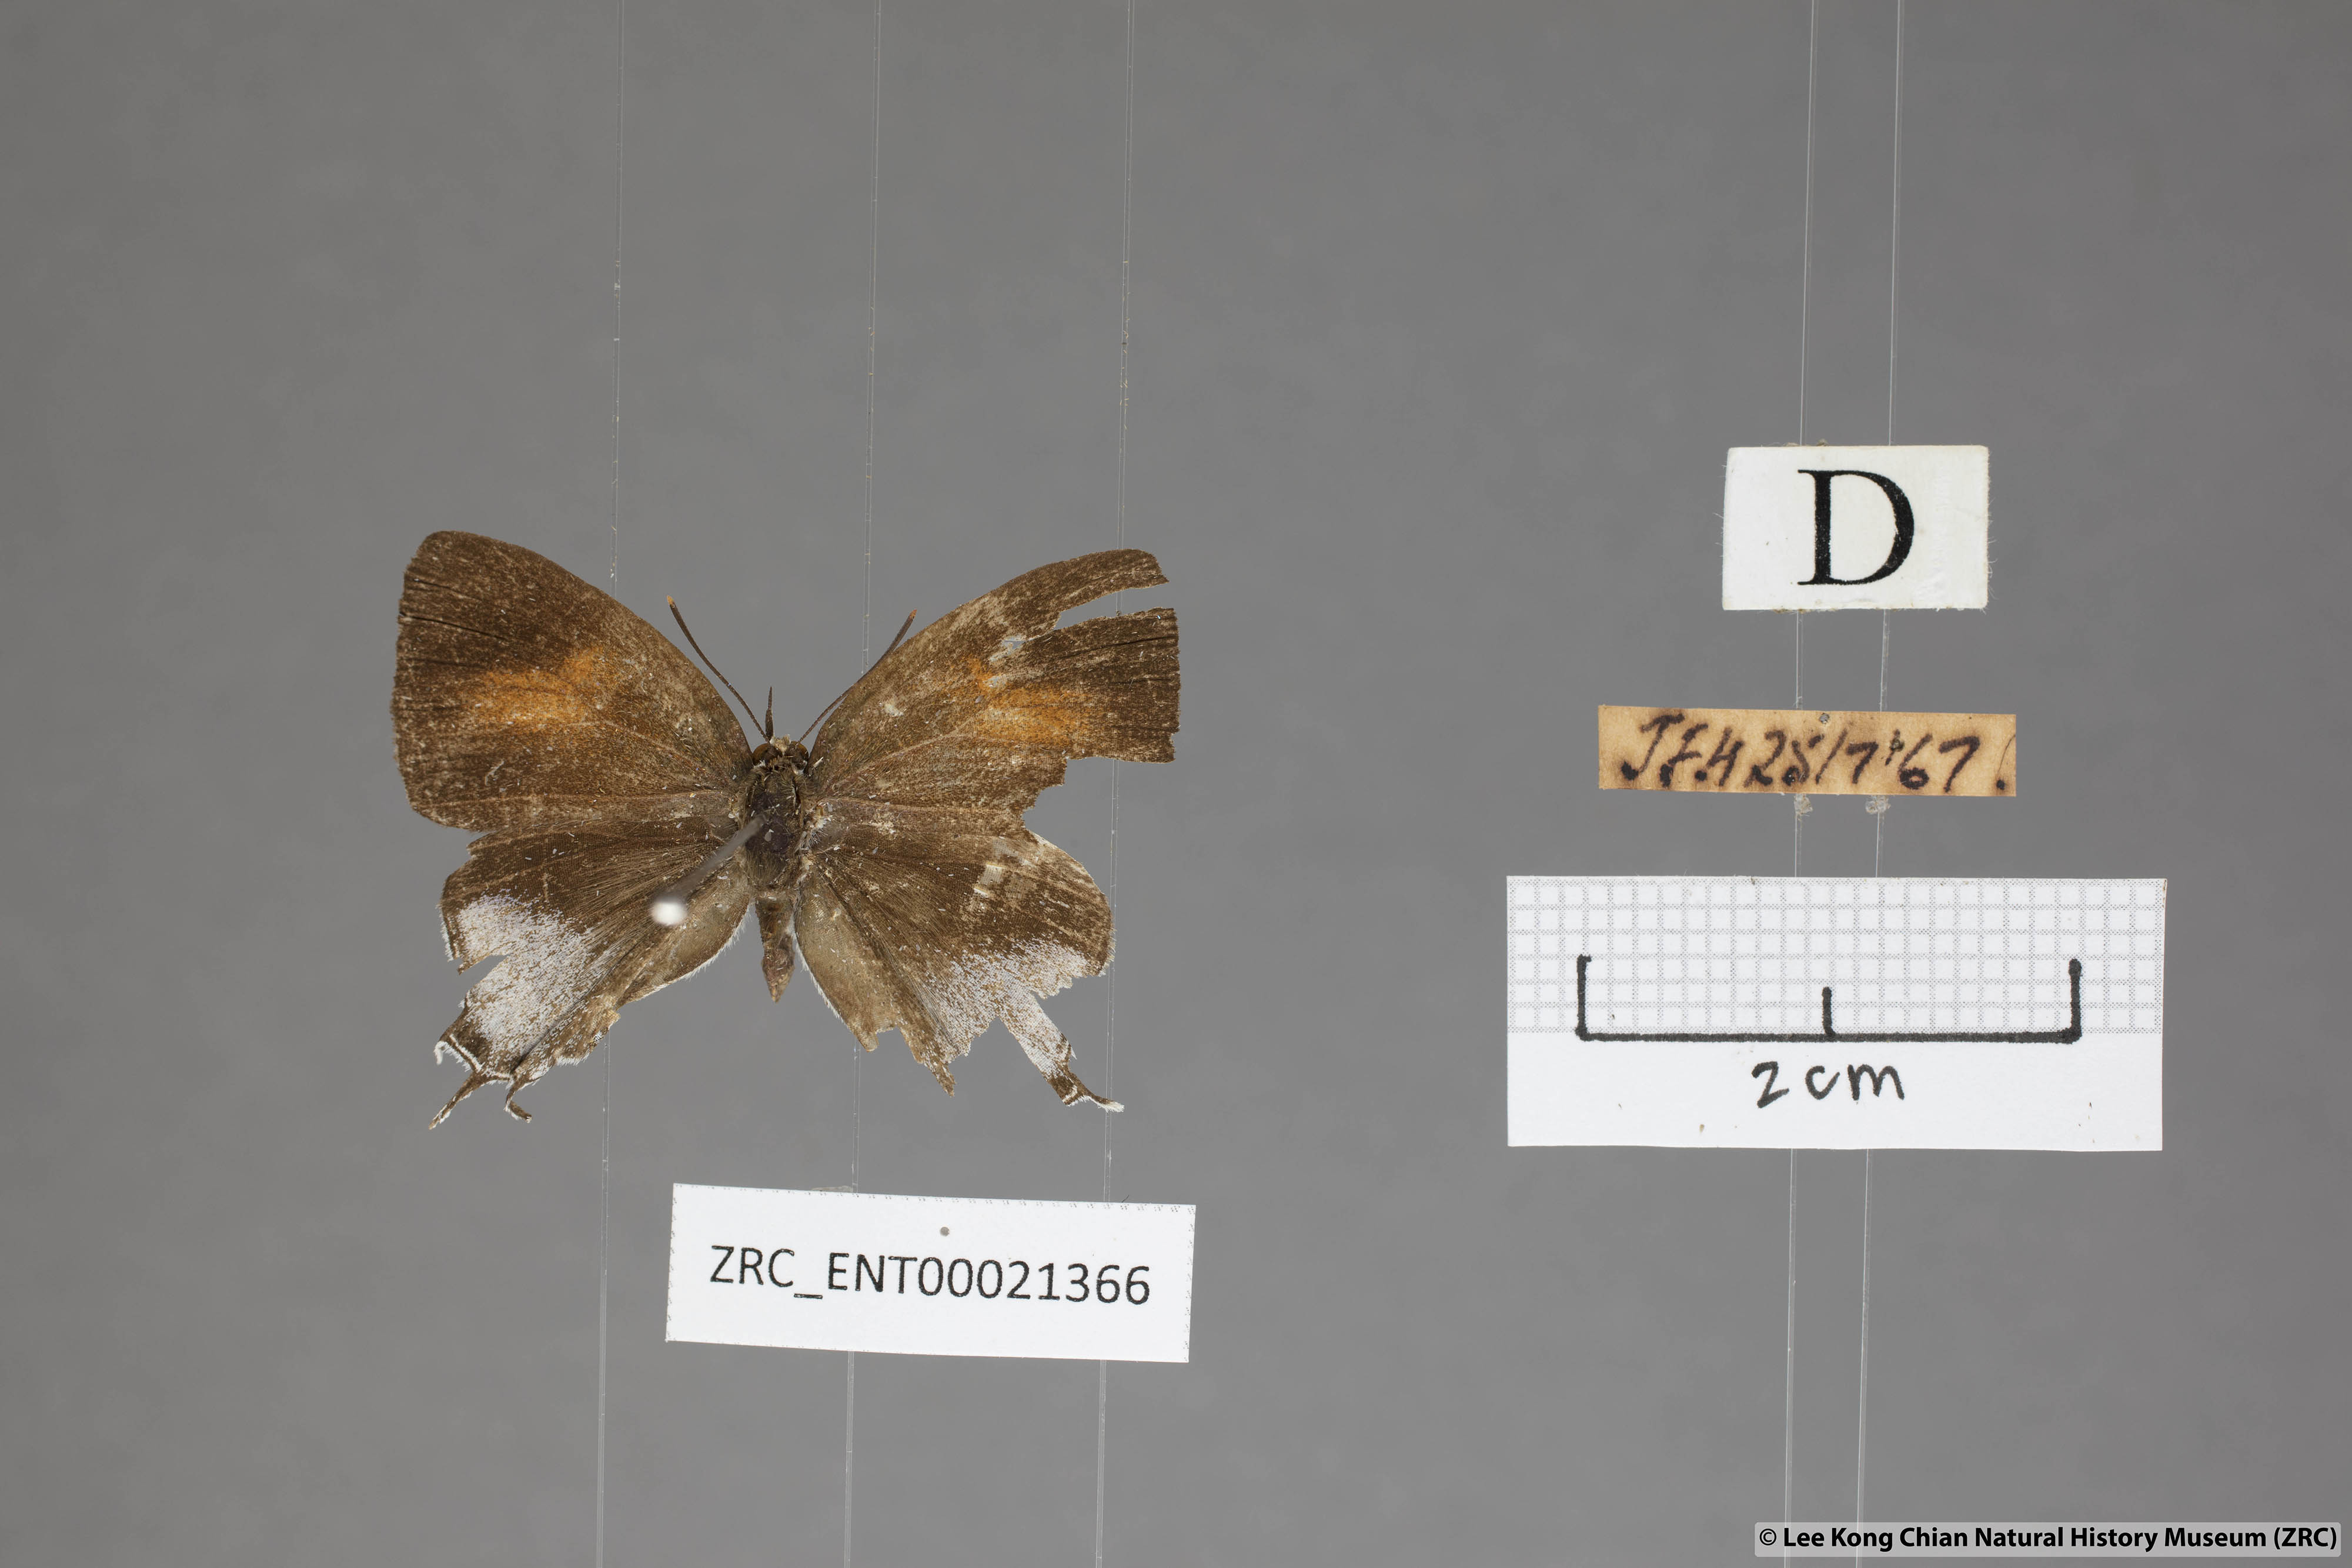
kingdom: Animalia
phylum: Arthropoda
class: Insecta
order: Lepidoptera
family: Lycaenidae
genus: Drupadia
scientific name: Drupadia estella
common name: White-craved posy
